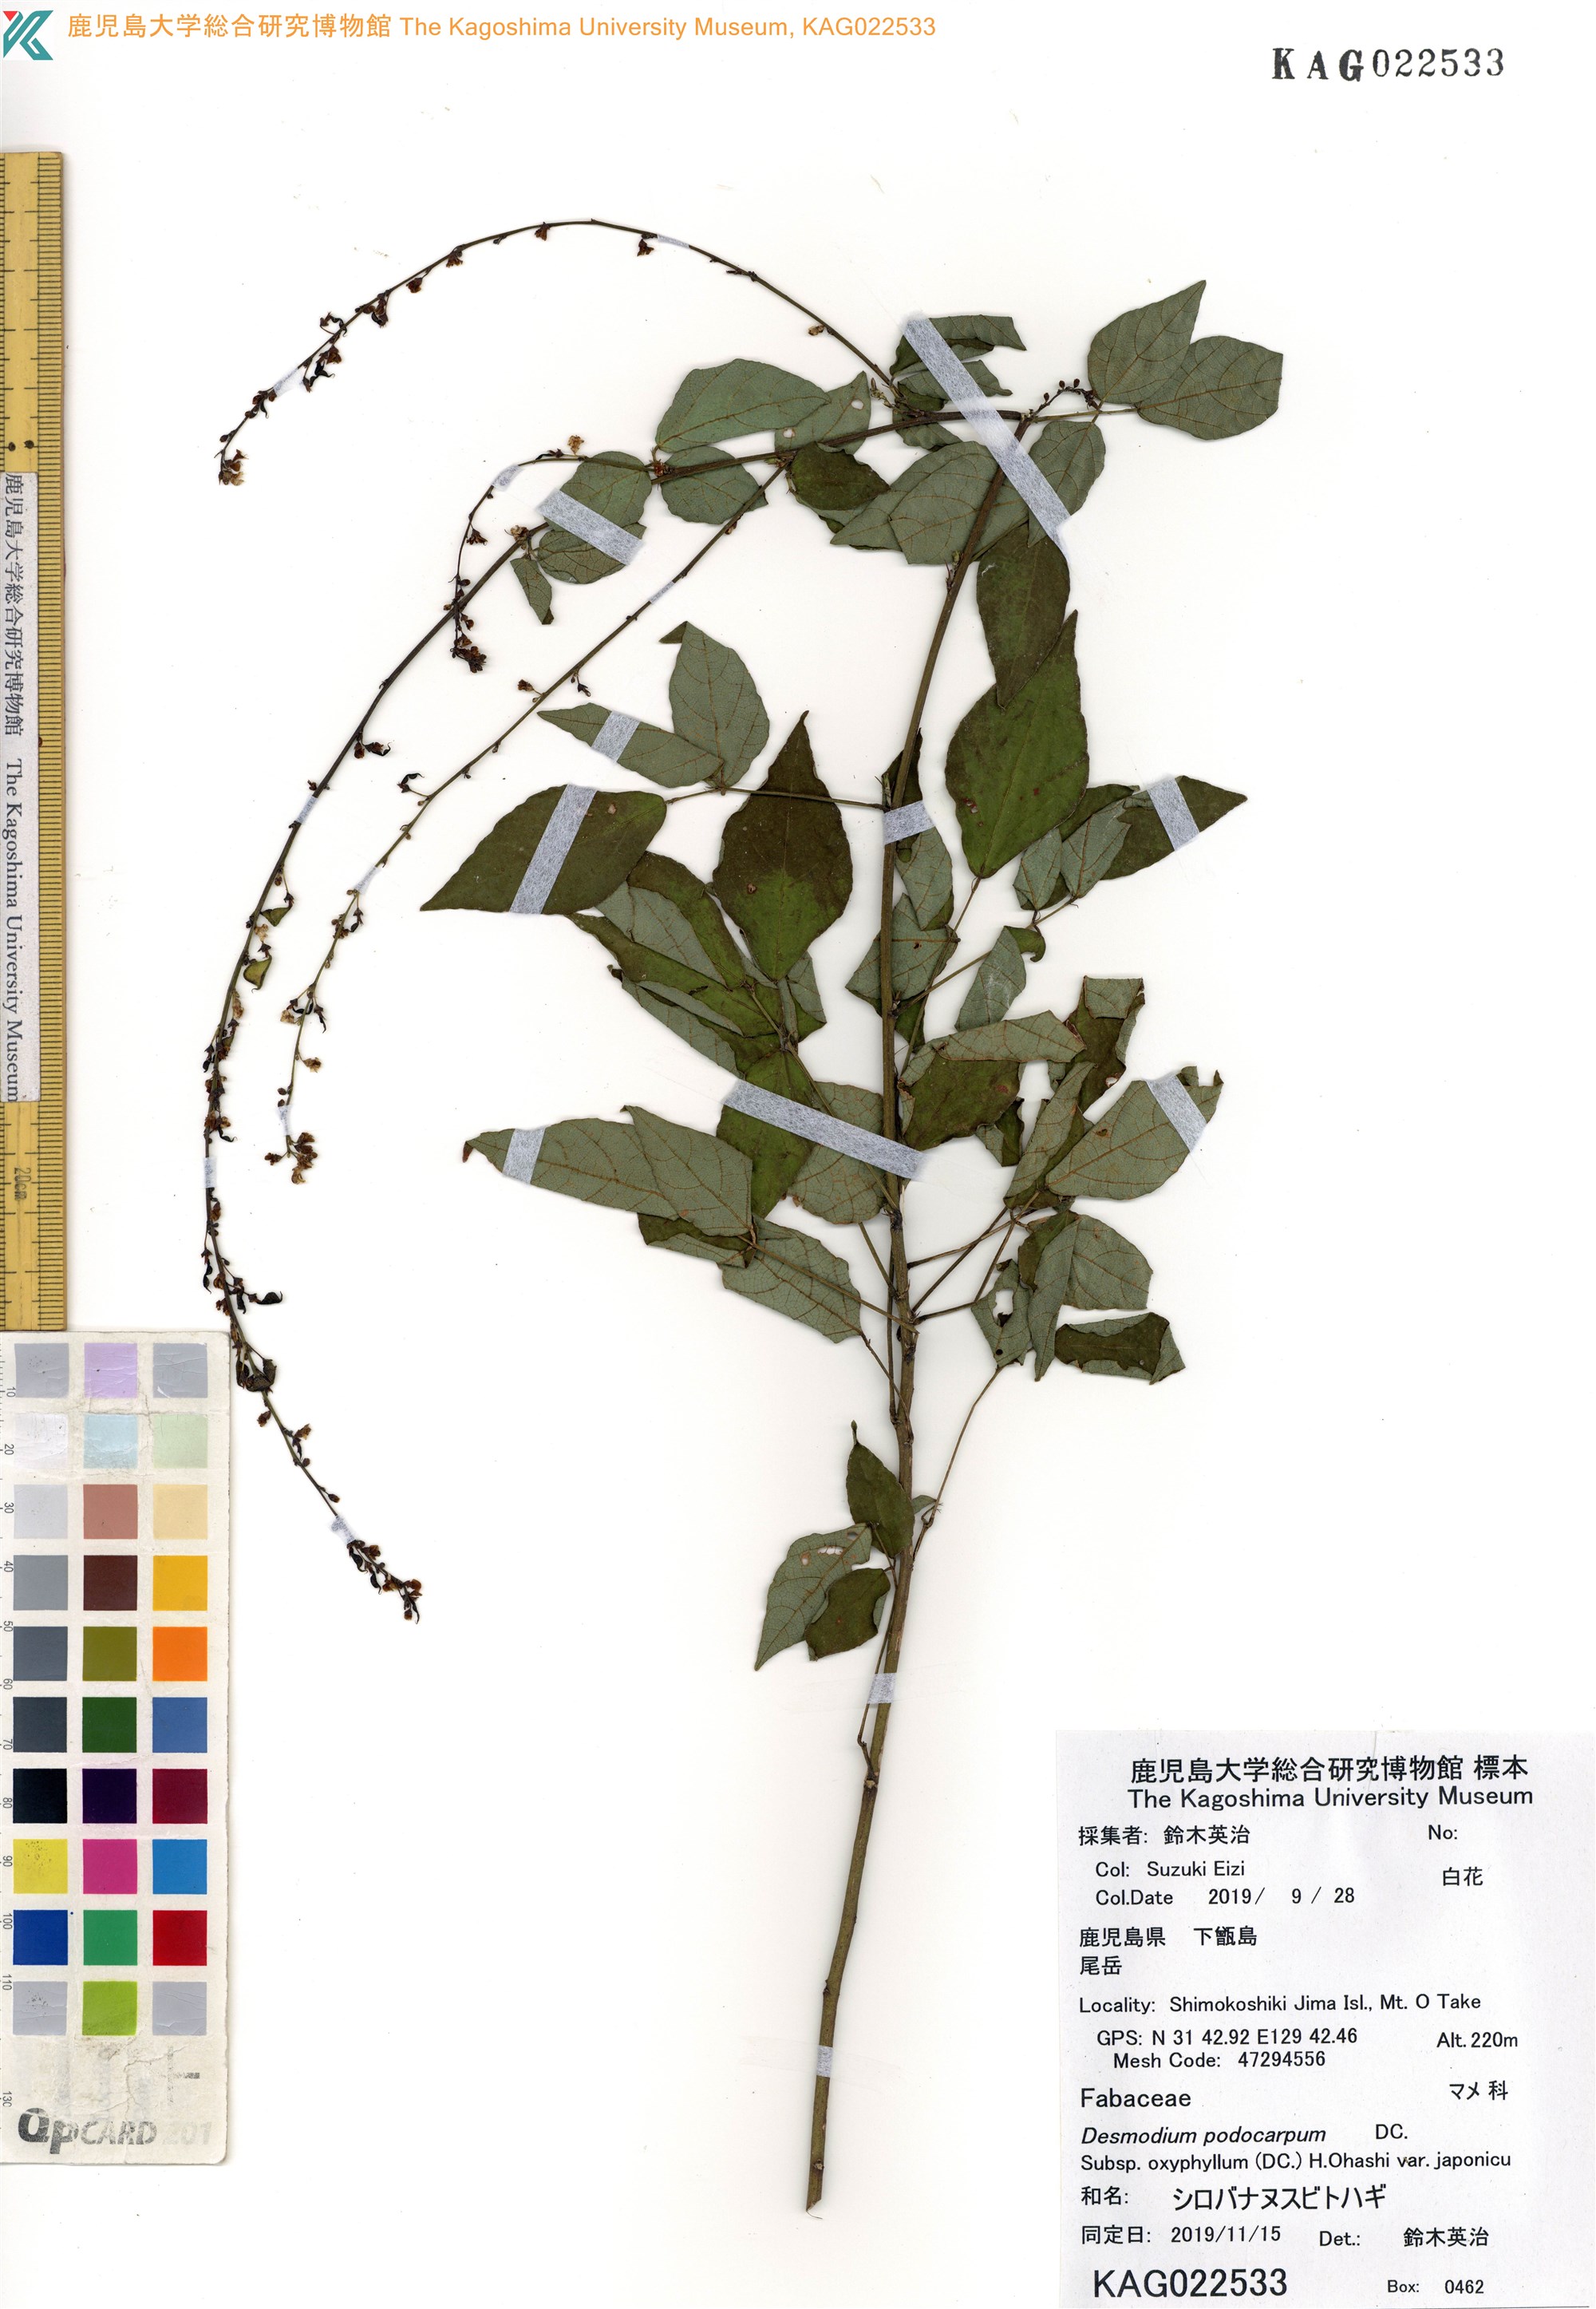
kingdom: Plantae
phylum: Tracheophyta
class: Magnoliopsida
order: Fabales
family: Fabaceae
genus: Hylodesmum
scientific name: Hylodesmum podocarpum
